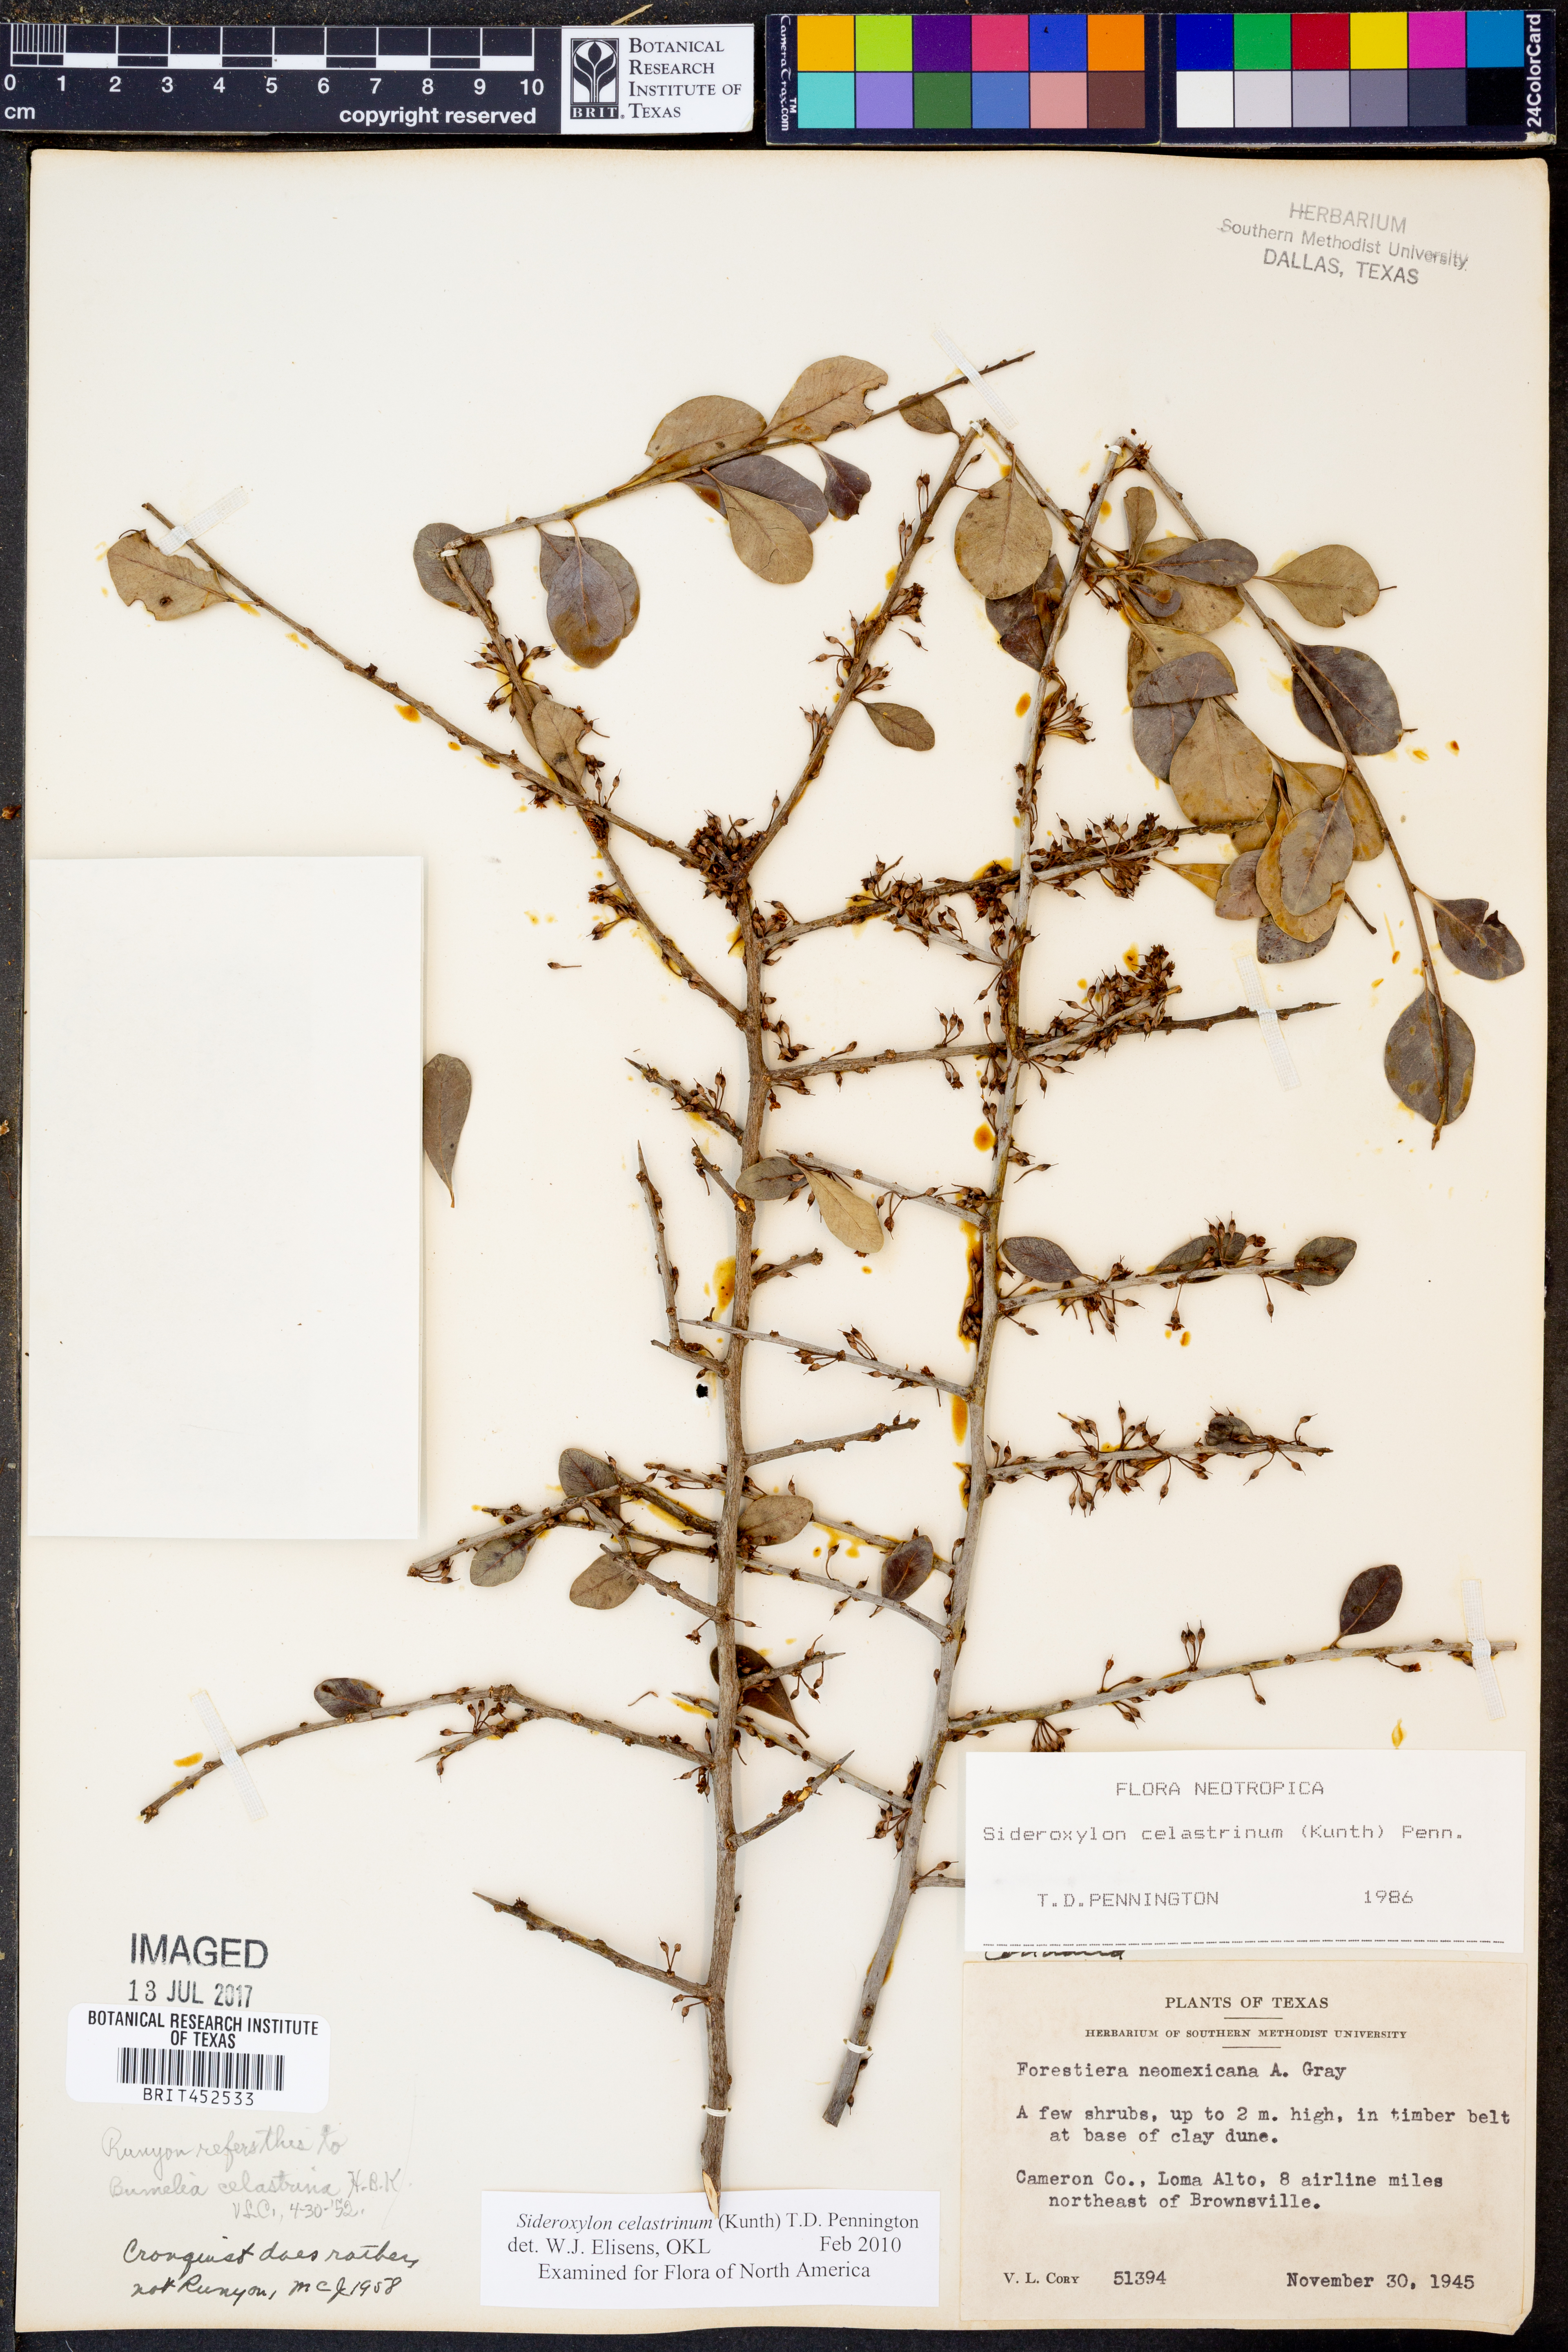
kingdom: Plantae
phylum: Tracheophyta
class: Magnoliopsida
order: Ericales
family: Sapotaceae
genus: Sideroxylon
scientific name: Sideroxylon celastrinum
